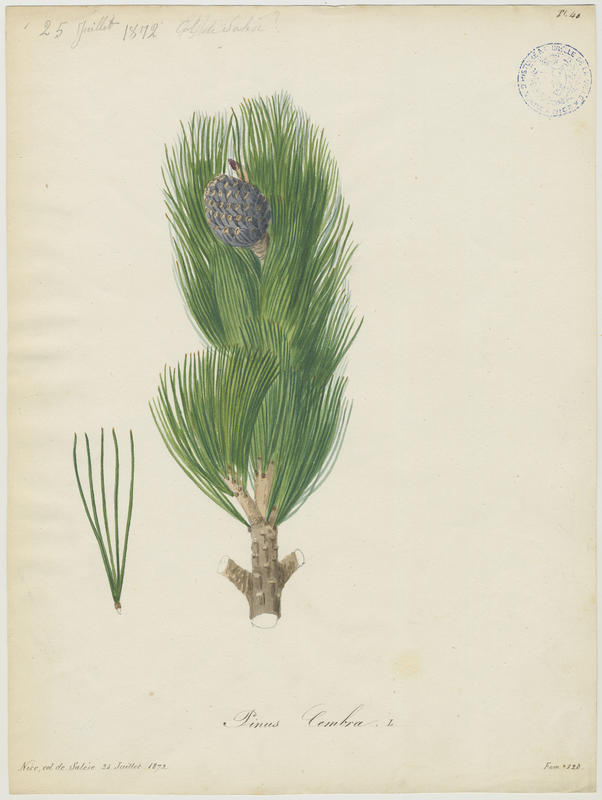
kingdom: Plantae
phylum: Tracheophyta
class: Pinopsida
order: Pinales
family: Pinaceae
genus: Pinus
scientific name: Pinus cembra
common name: Arolla pine
